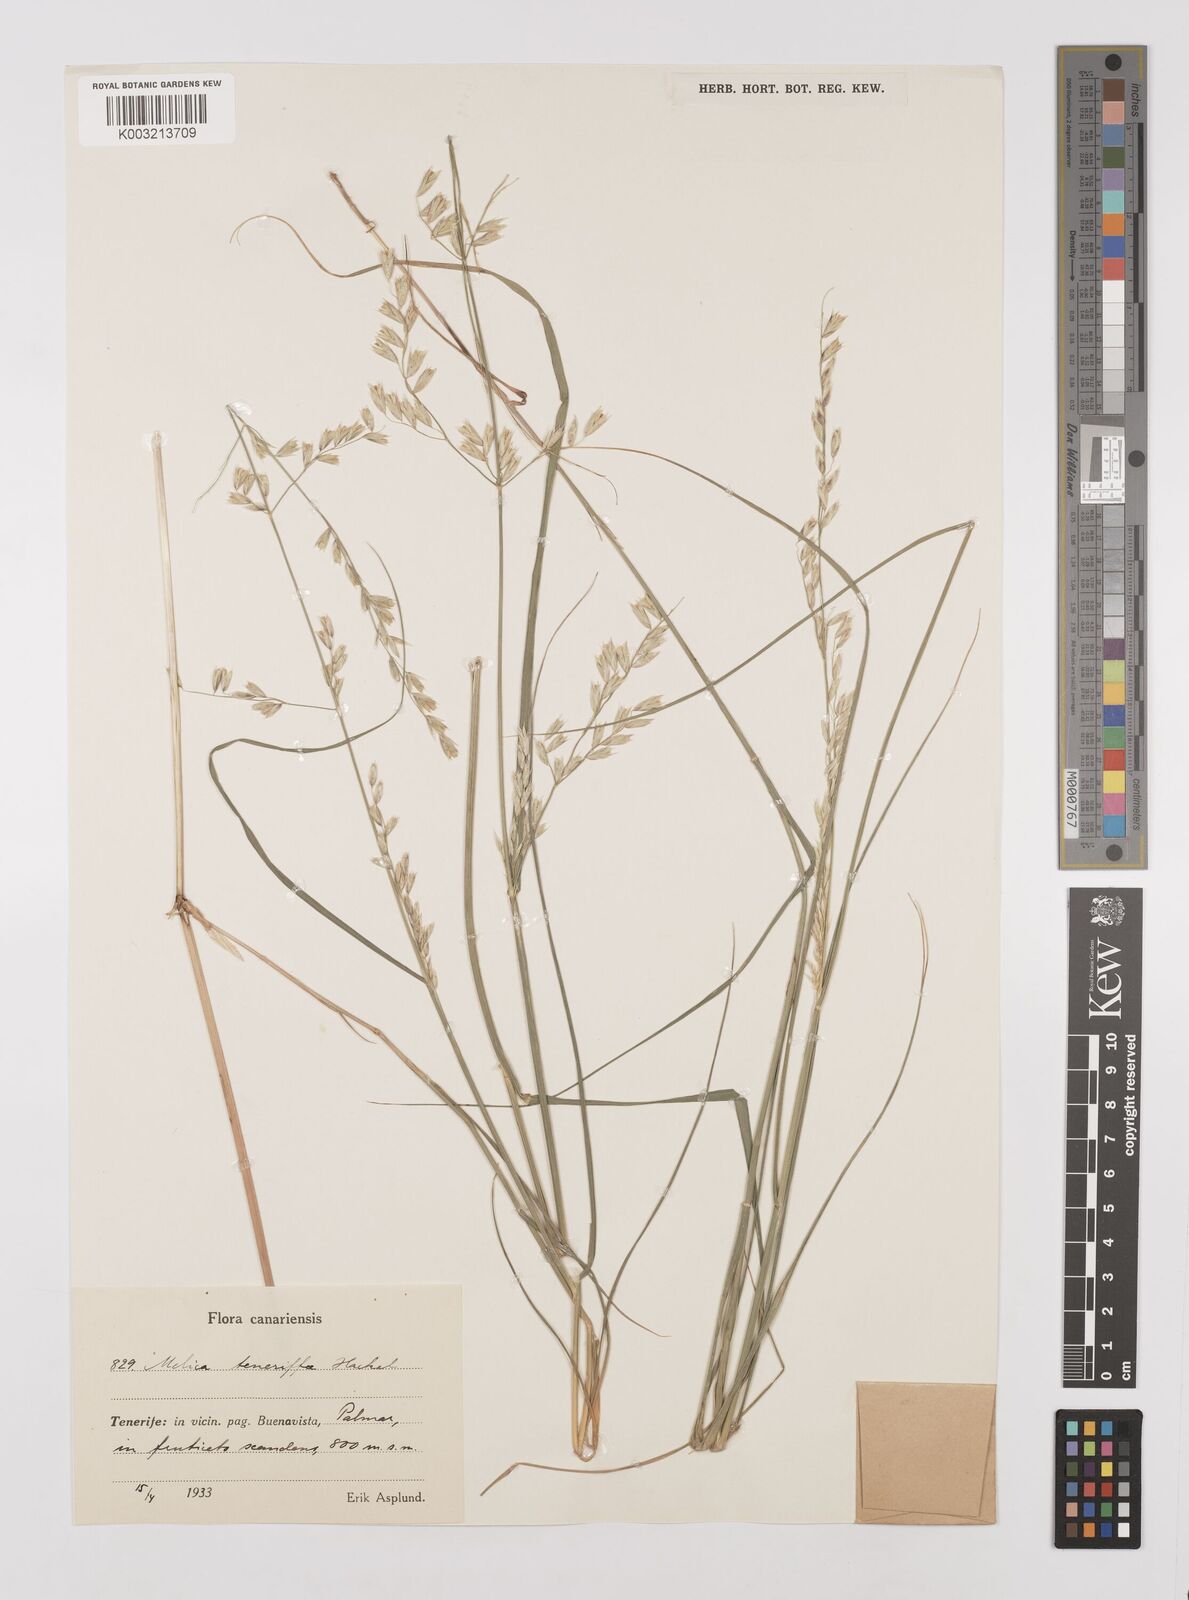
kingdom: Plantae
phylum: Tracheophyta
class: Liliopsida
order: Poales
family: Poaceae
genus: Melica
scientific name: Melica teneriffae
